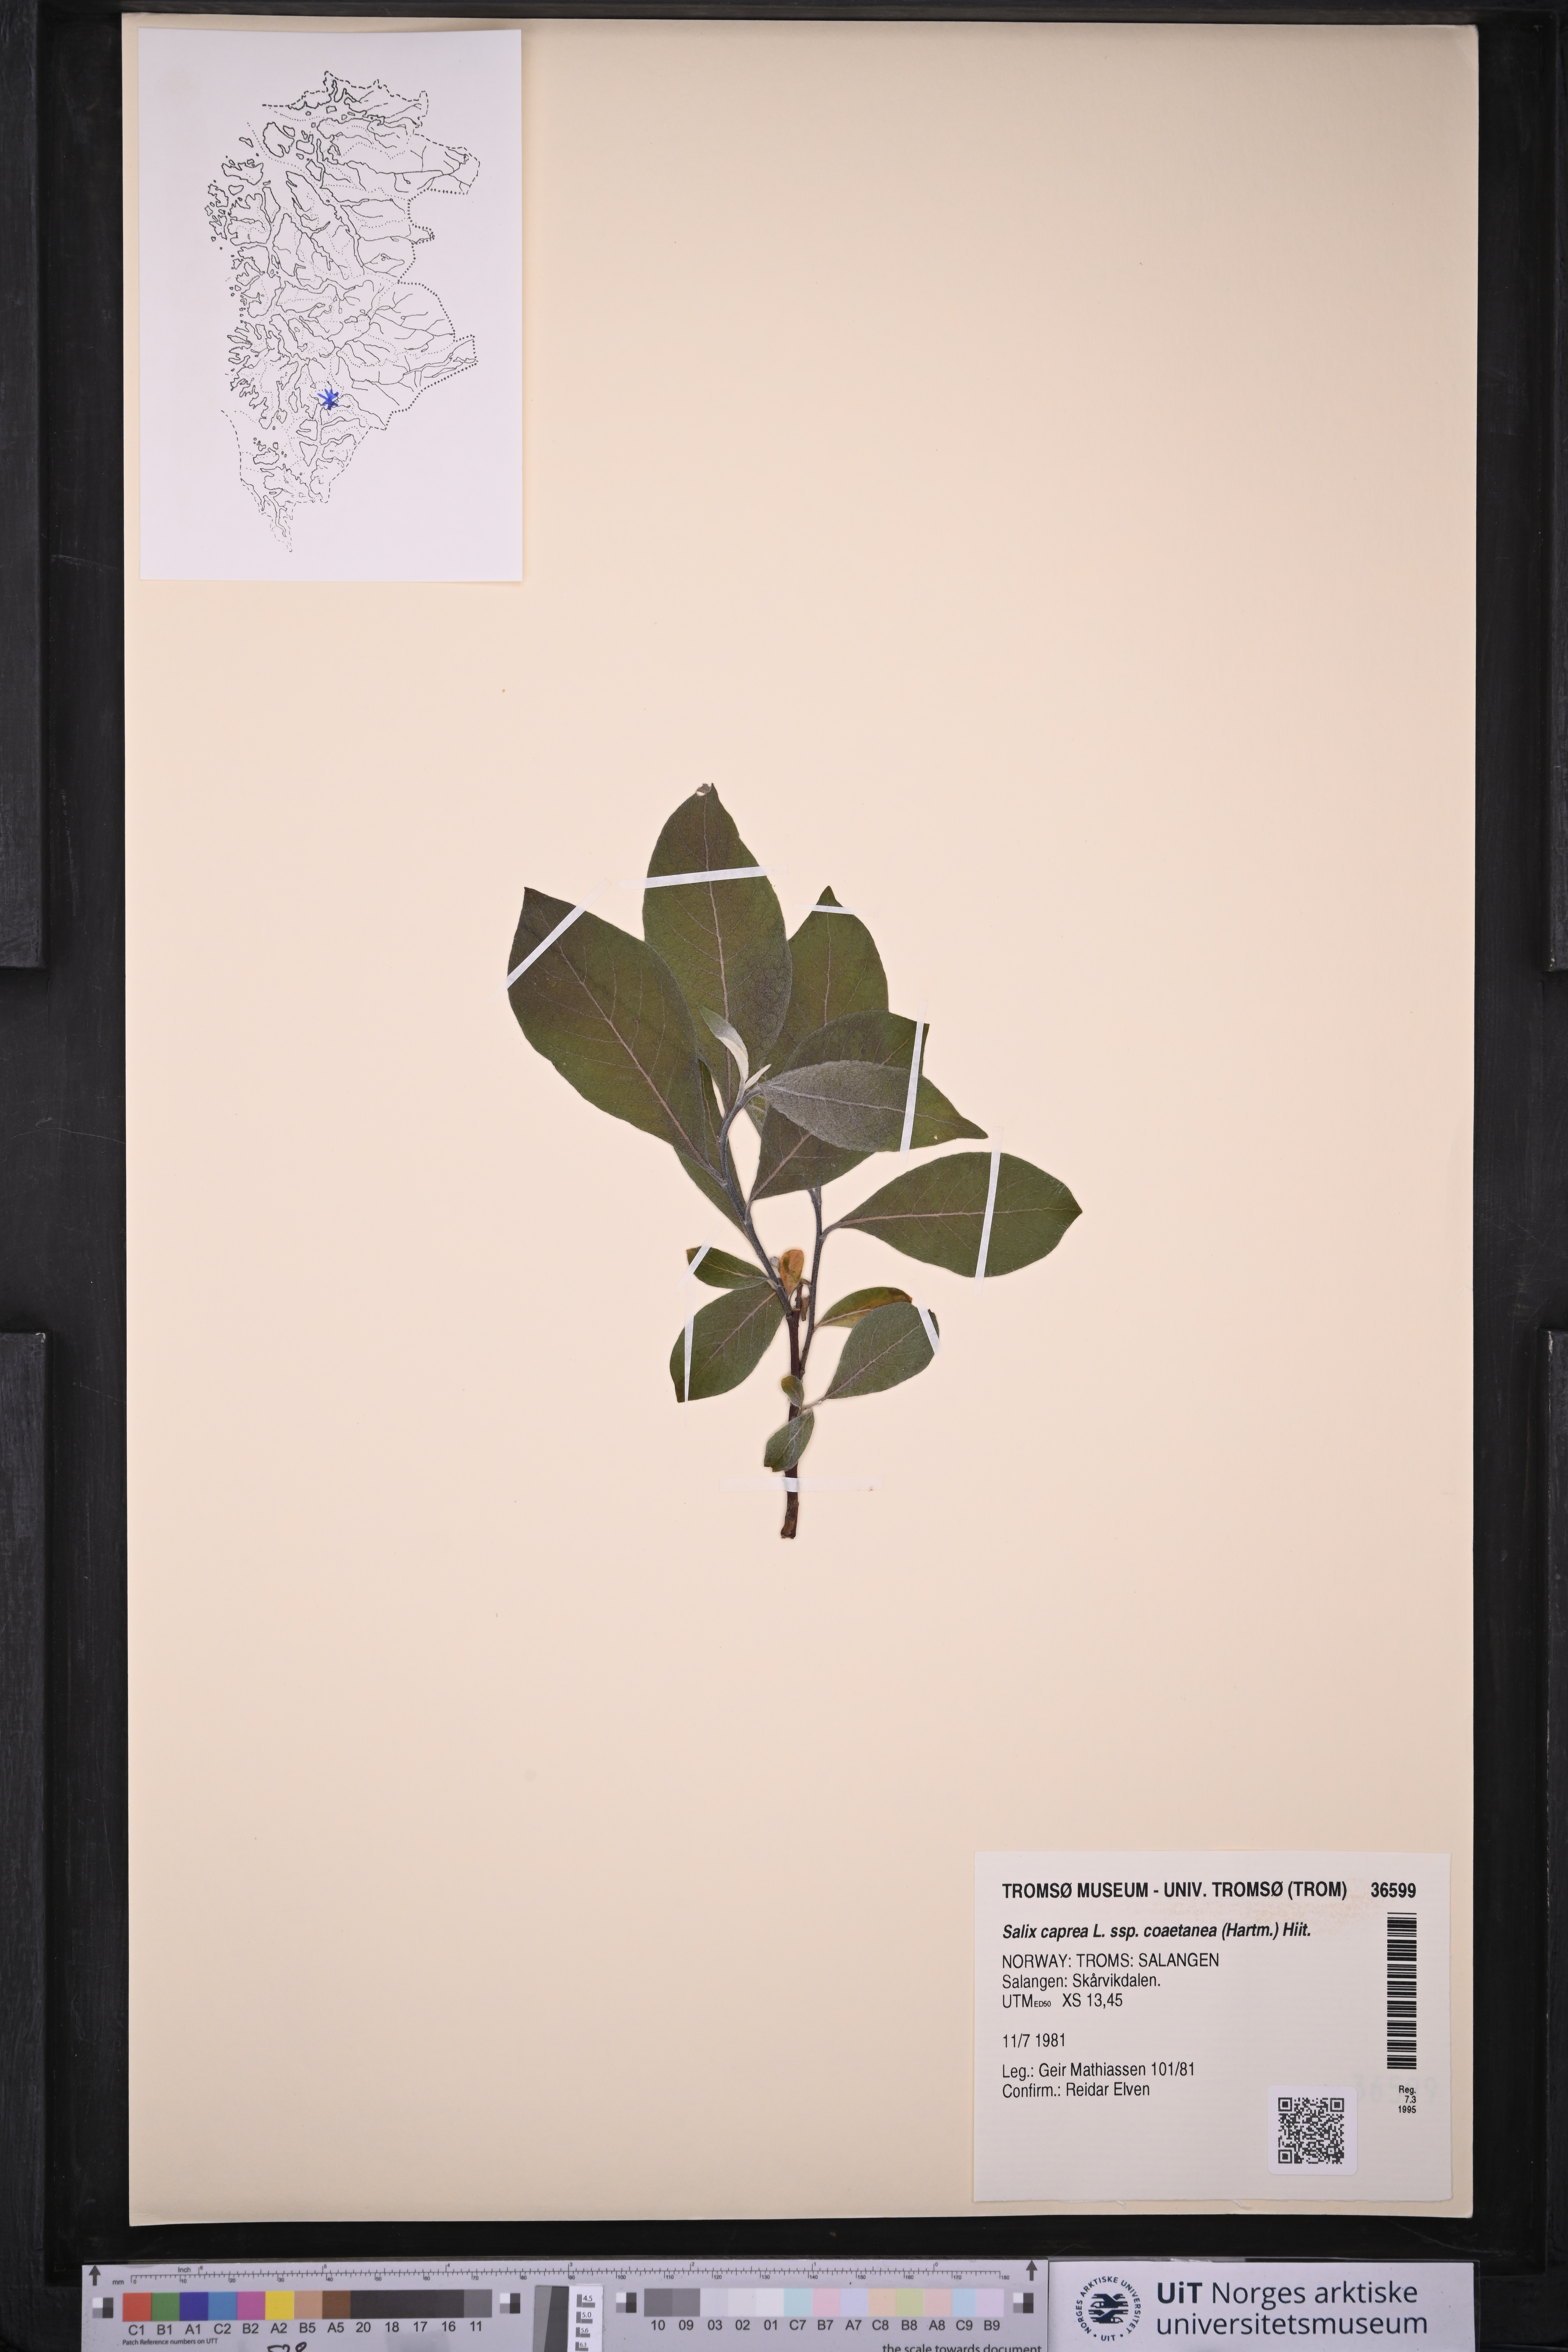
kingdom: Plantae
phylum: Tracheophyta
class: Magnoliopsida
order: Malpighiales
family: Salicaceae
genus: Salix
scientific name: Salix caprea
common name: Goat willow
